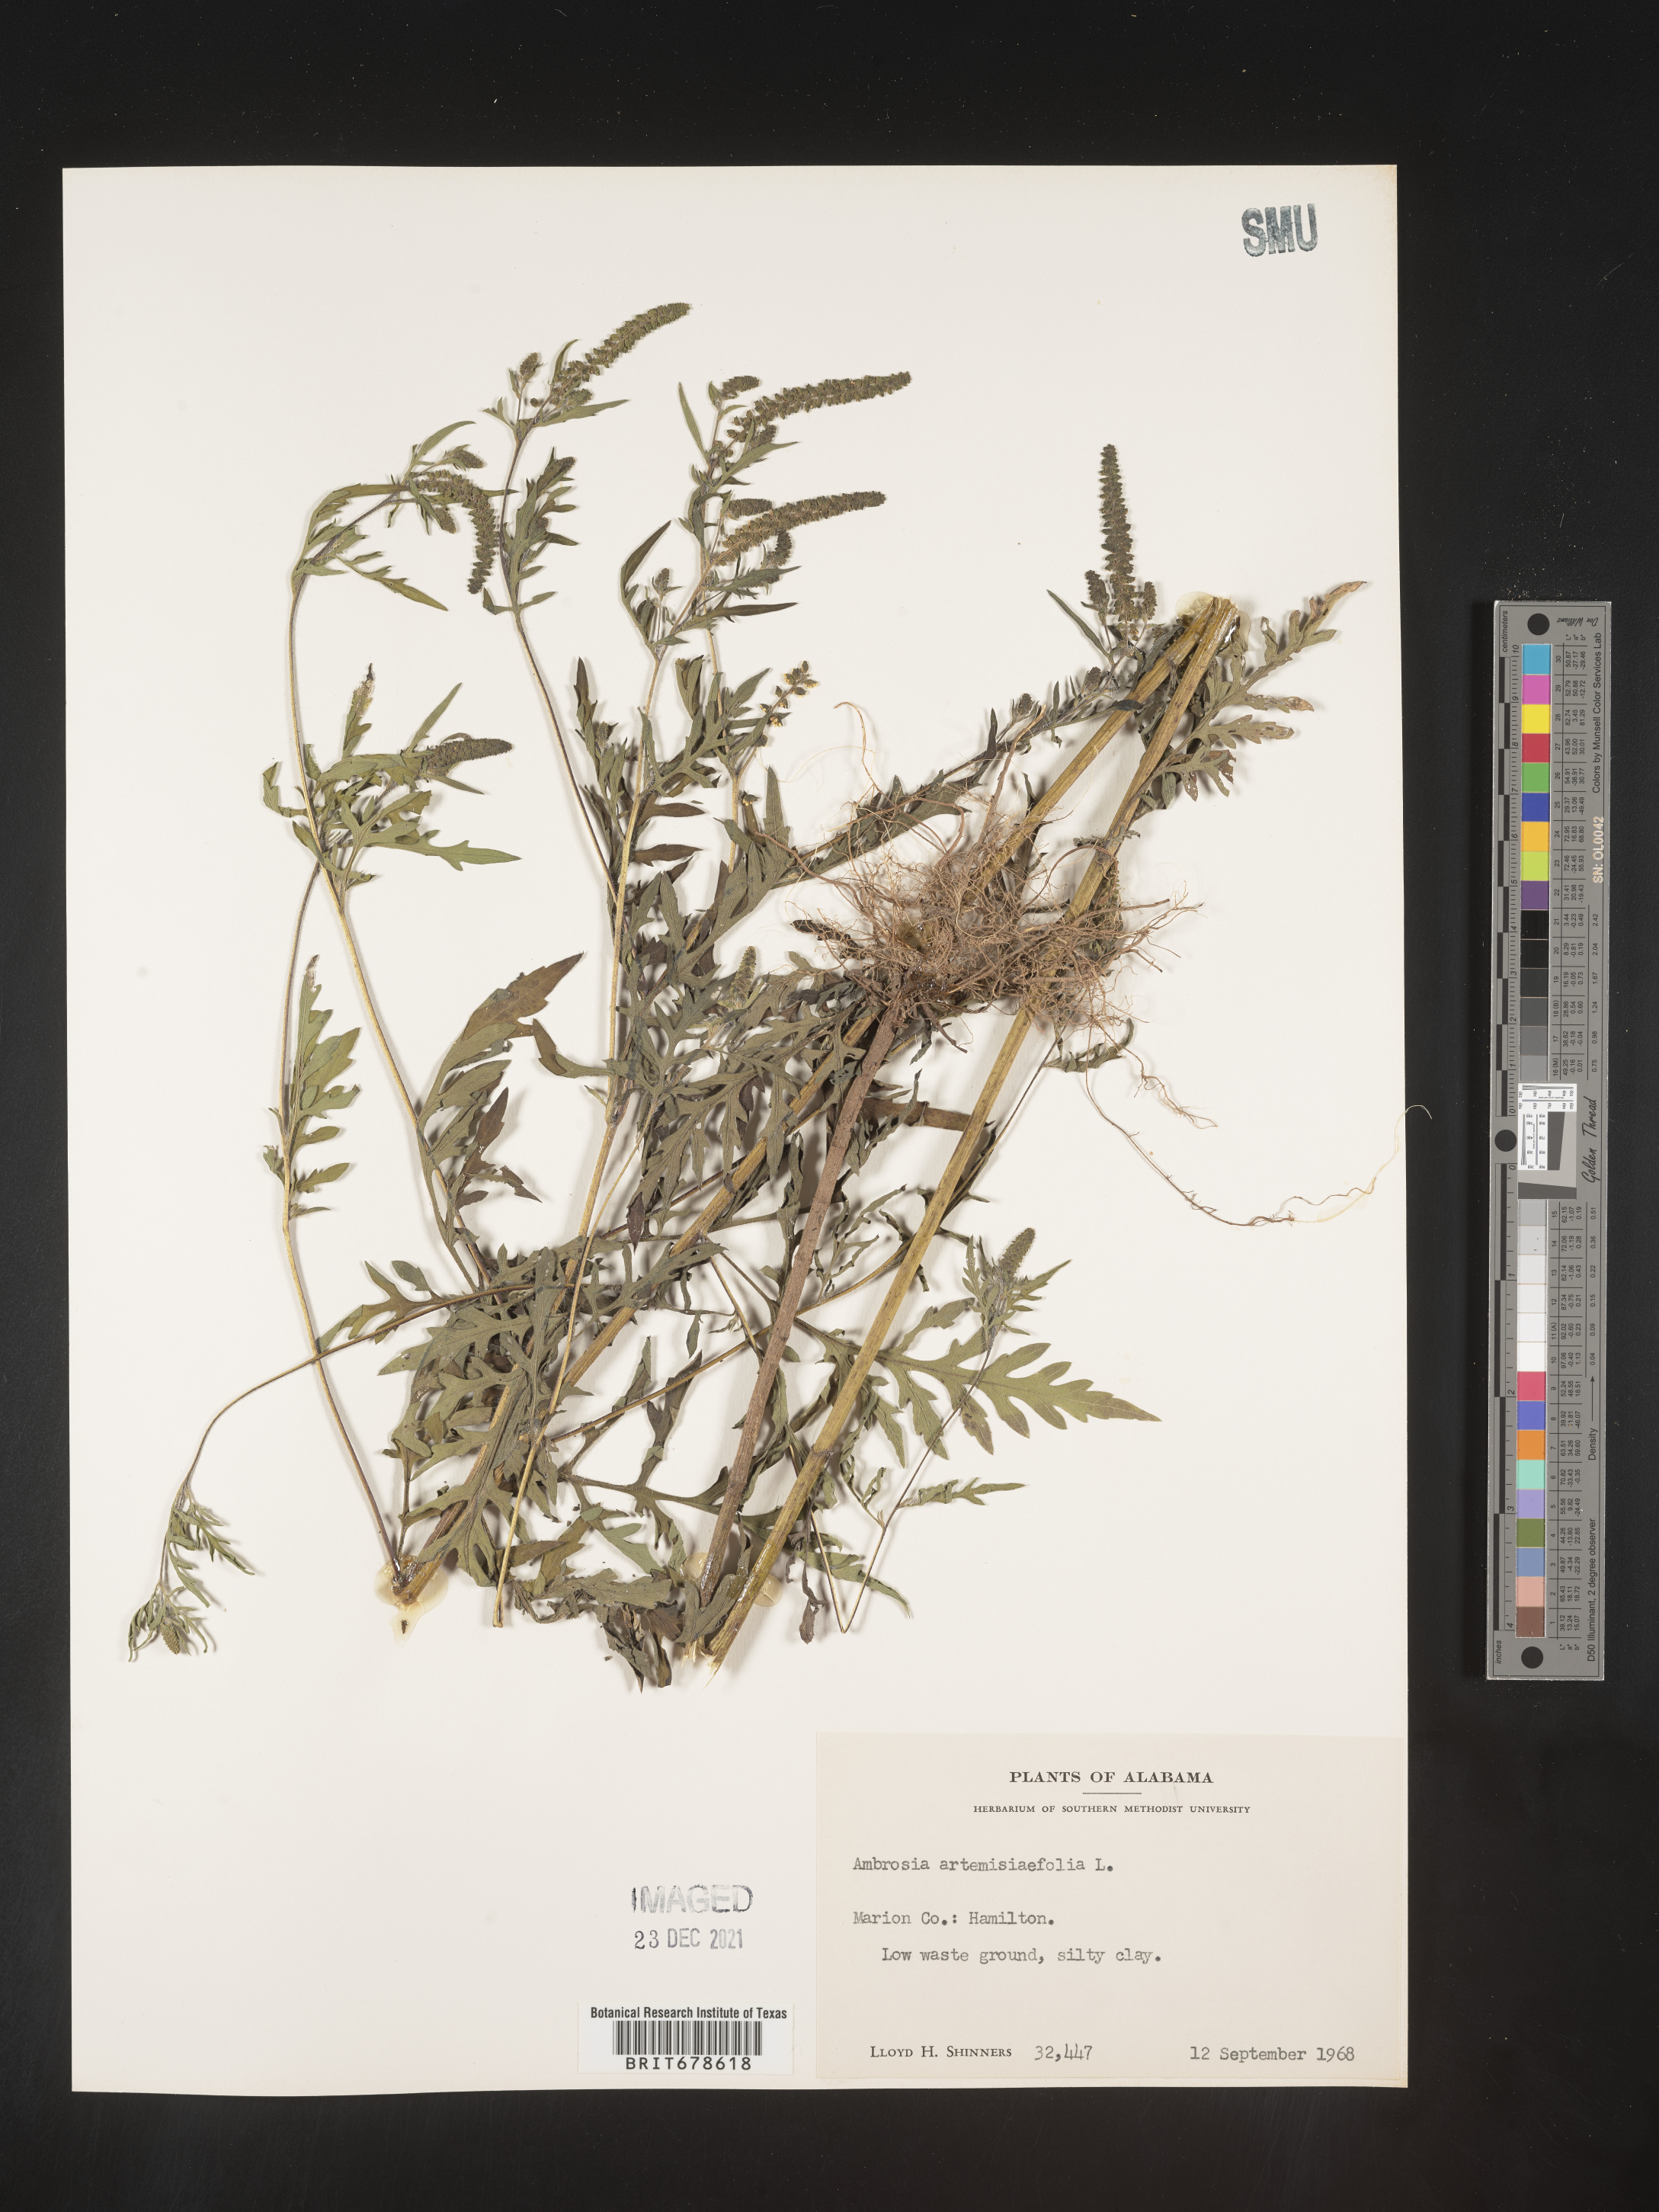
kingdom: Plantae
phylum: Tracheophyta
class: Magnoliopsida
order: Asterales
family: Asteraceae
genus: Ambrosia
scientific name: Ambrosia polystachya
